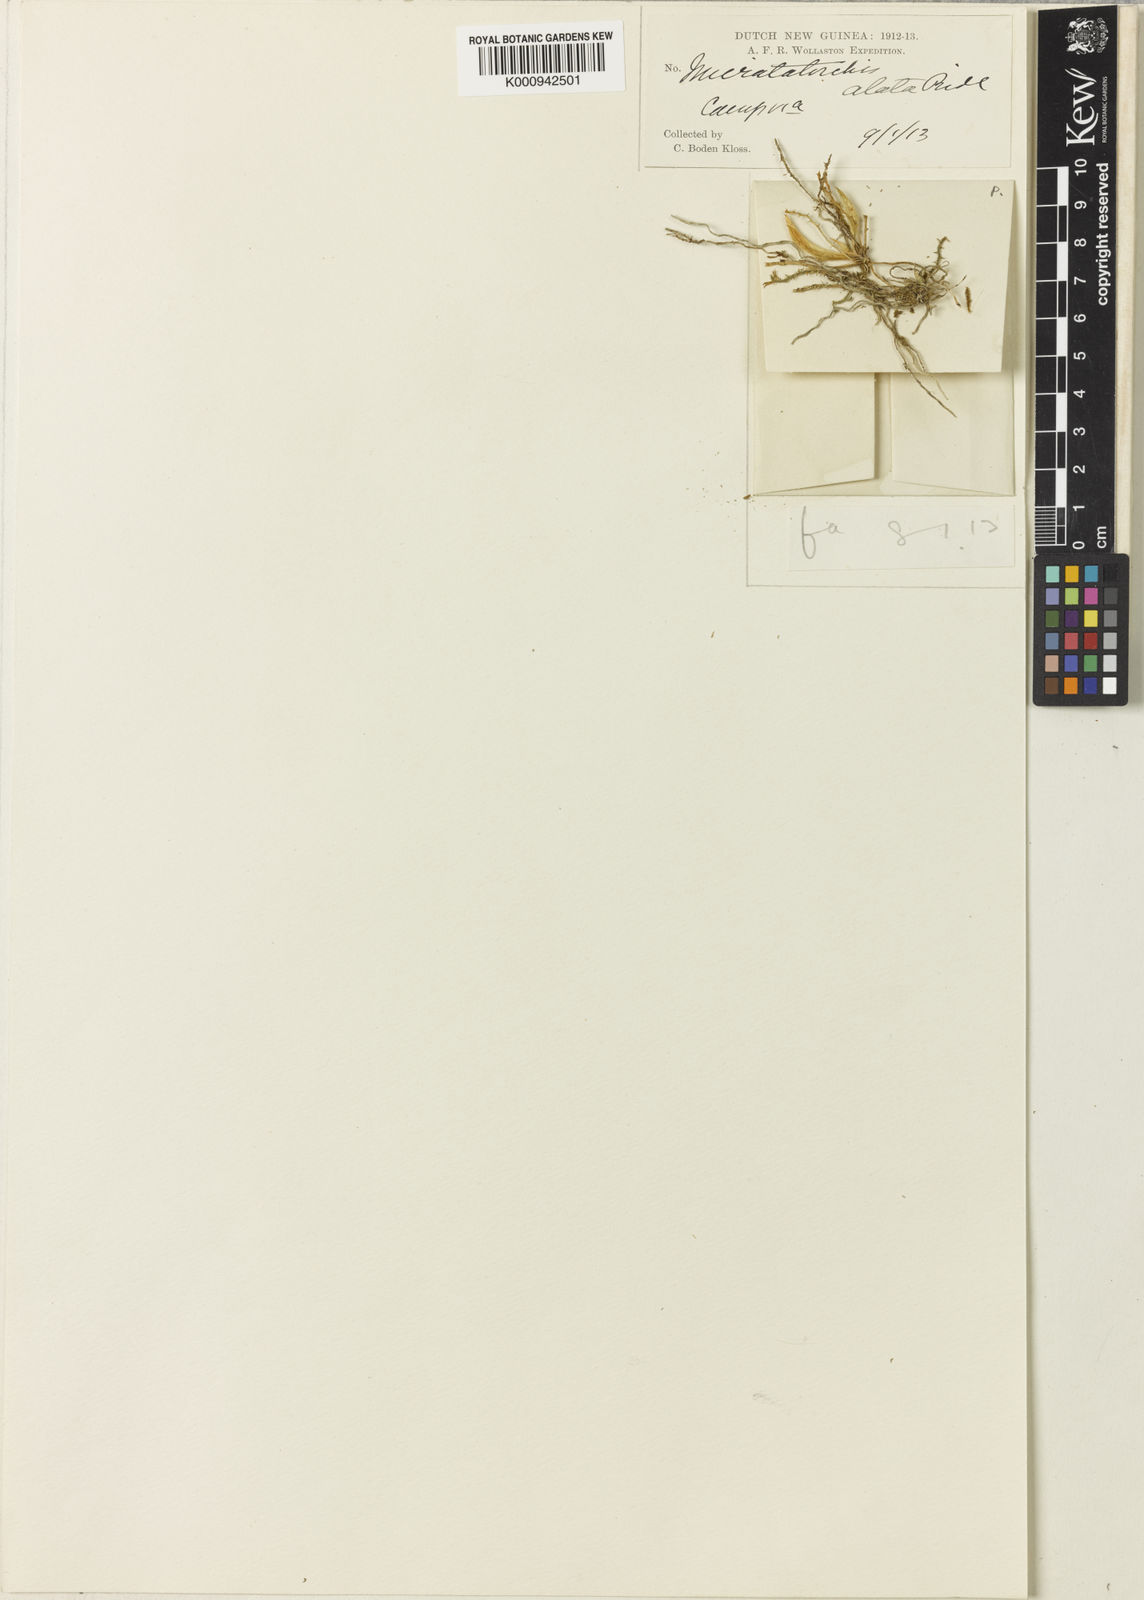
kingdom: Plantae
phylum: Tracheophyta
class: Liliopsida
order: Asparagales
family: Orchidaceae
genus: Taeniophyllum
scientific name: Taeniophyllum alatum
